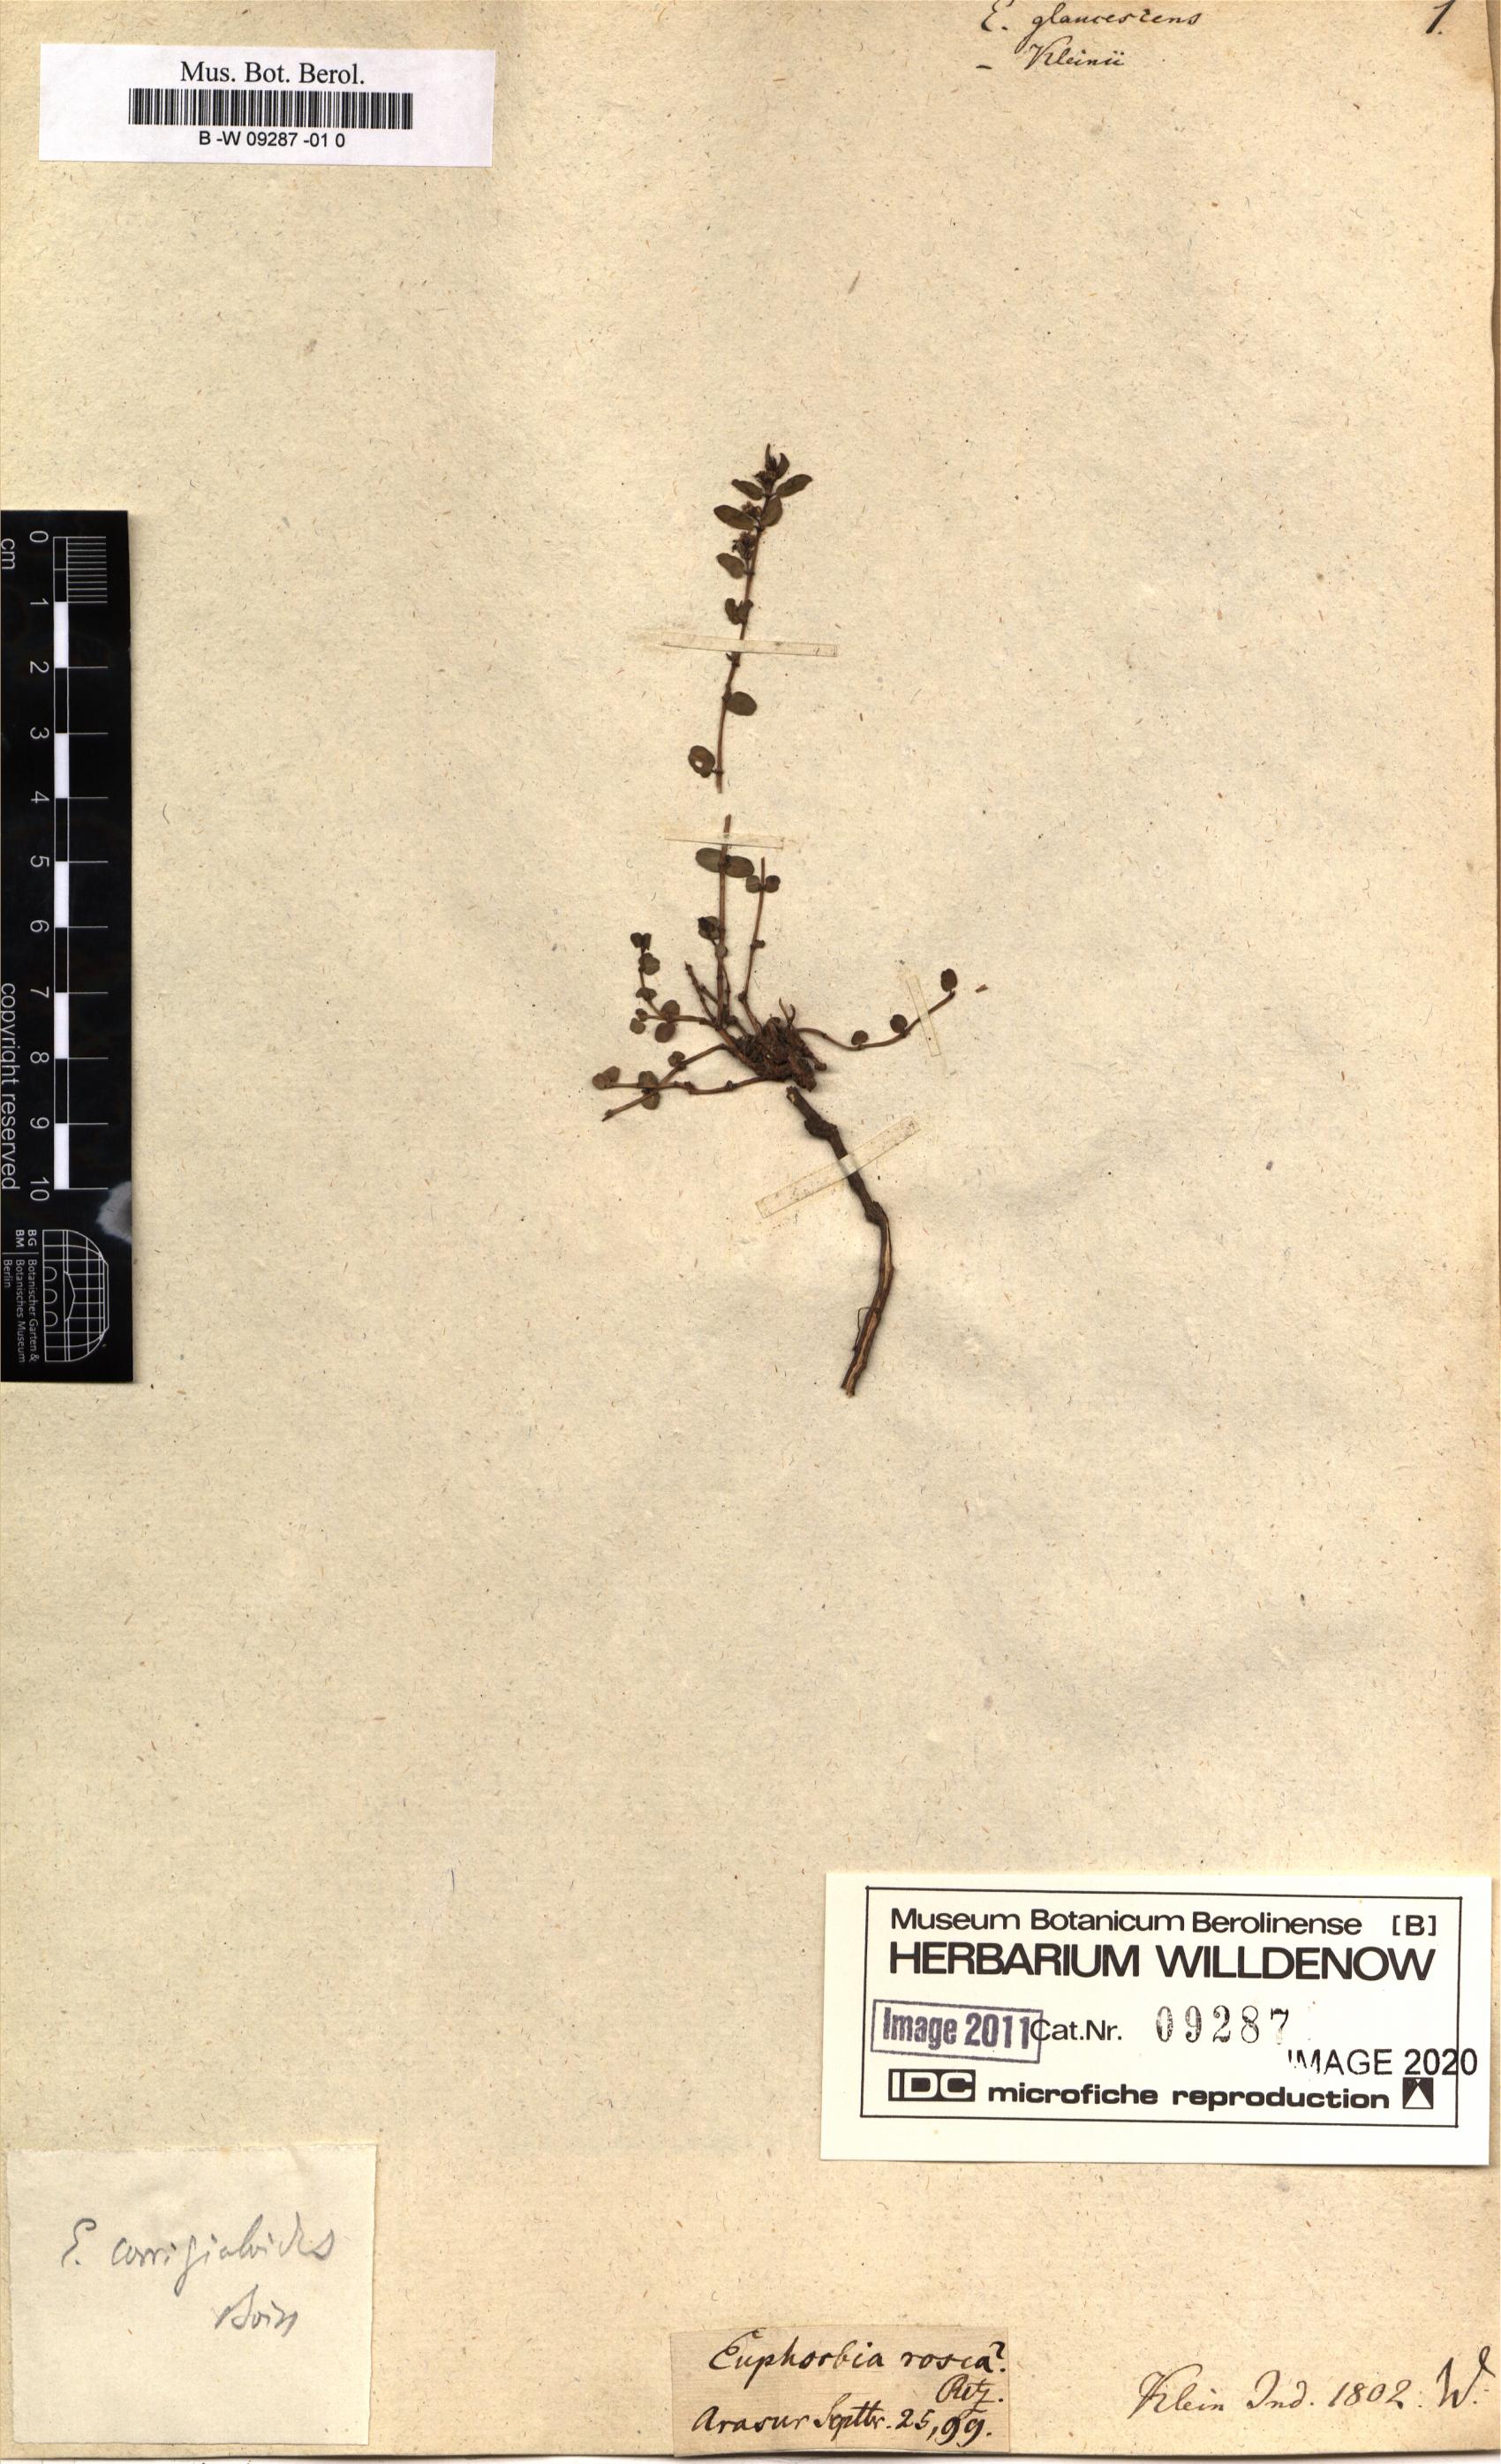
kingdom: Plantae
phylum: Tracheophyta
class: Magnoliopsida
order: Malpighiales
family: Euphorbiaceae
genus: Euphorbia
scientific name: Euphorbia glaucescens
